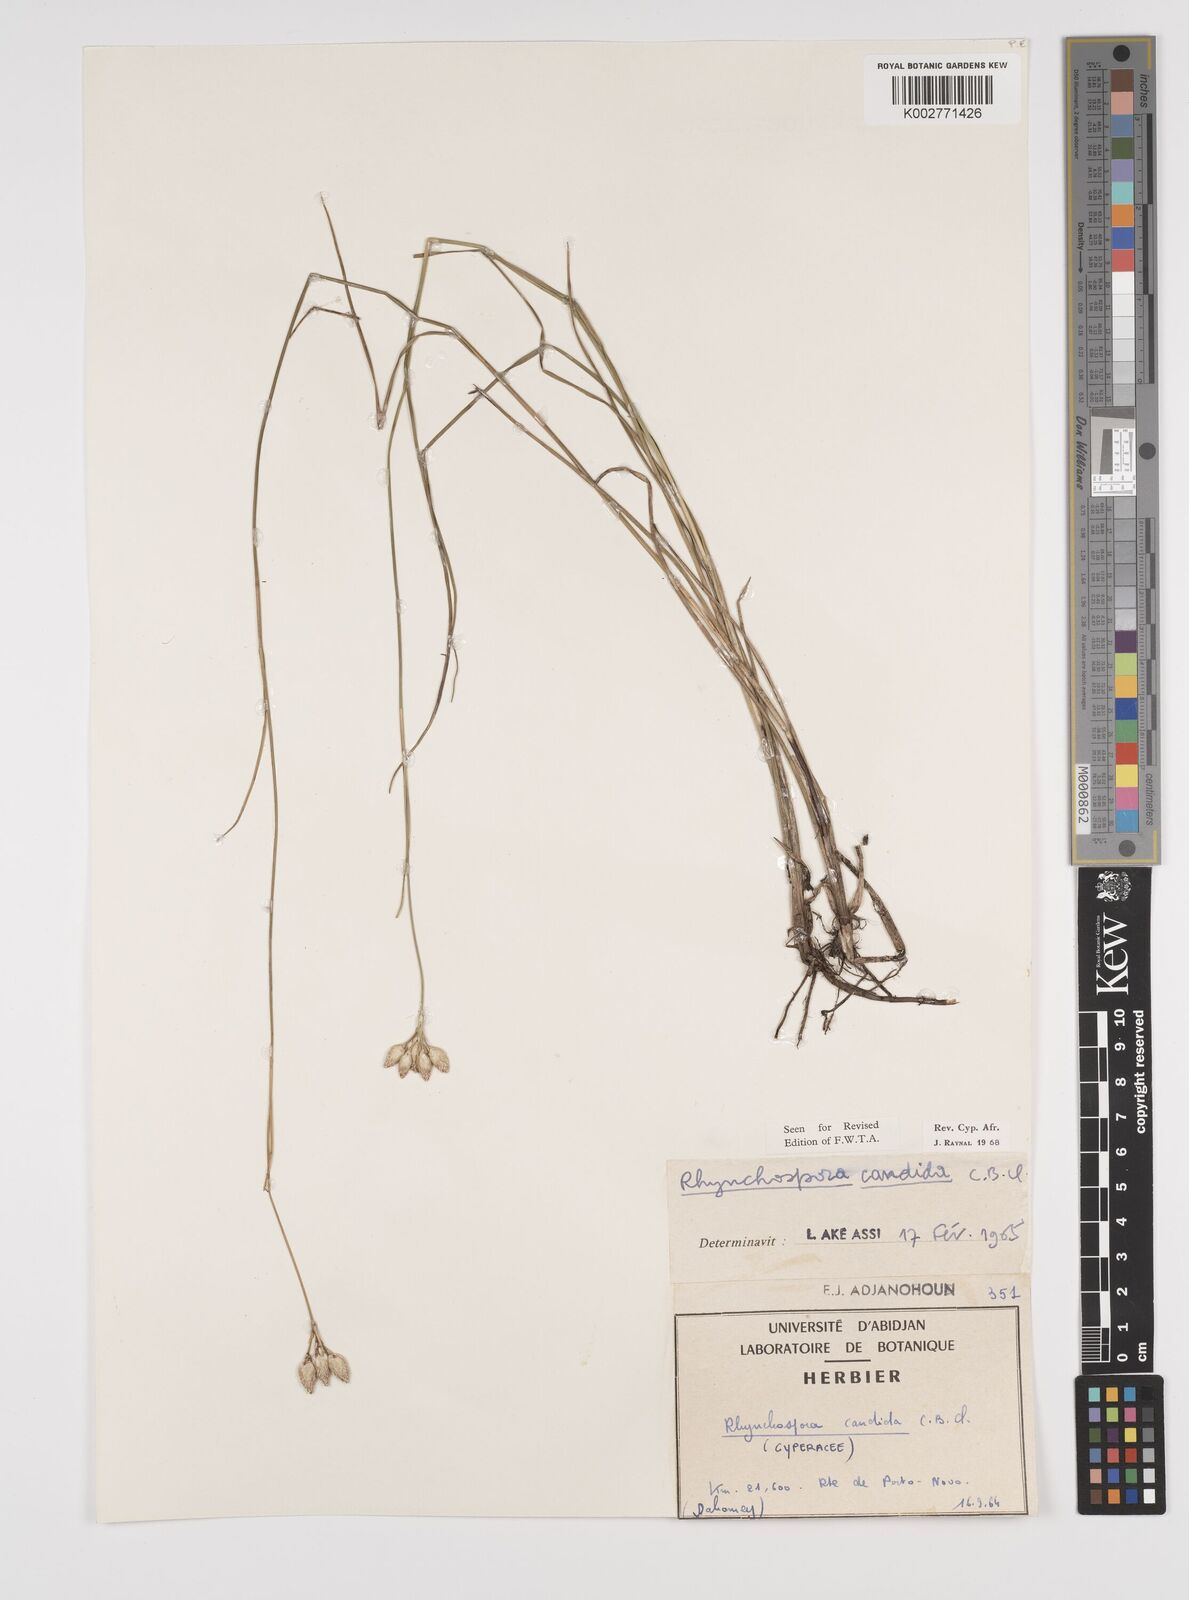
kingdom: Plantae
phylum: Tracheophyta
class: Liliopsida
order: Poales
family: Cyperaceae
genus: Rhynchospora
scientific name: Rhynchospora candida
